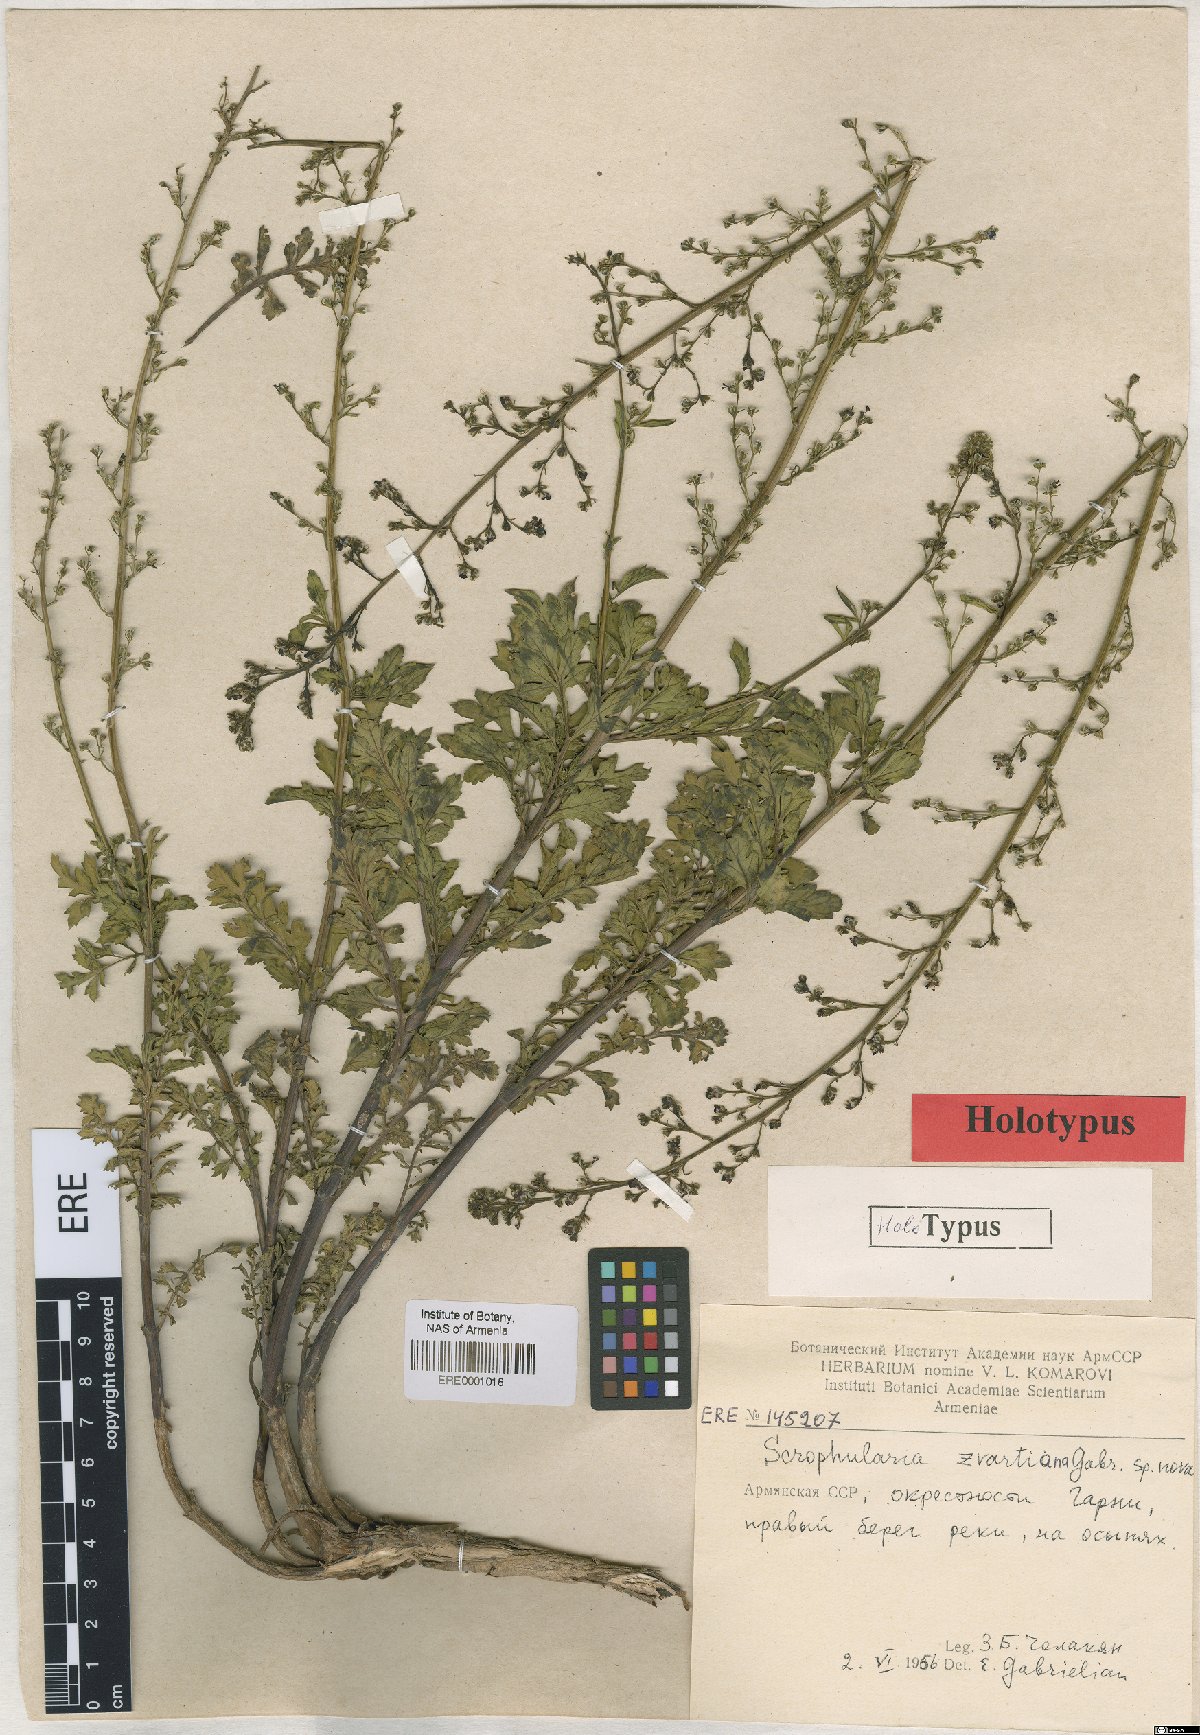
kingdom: Plantae
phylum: Tracheophyta
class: Magnoliopsida
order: Lamiales
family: Scrophulariaceae
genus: Scrophularia
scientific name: Scrophularia zvartiana
